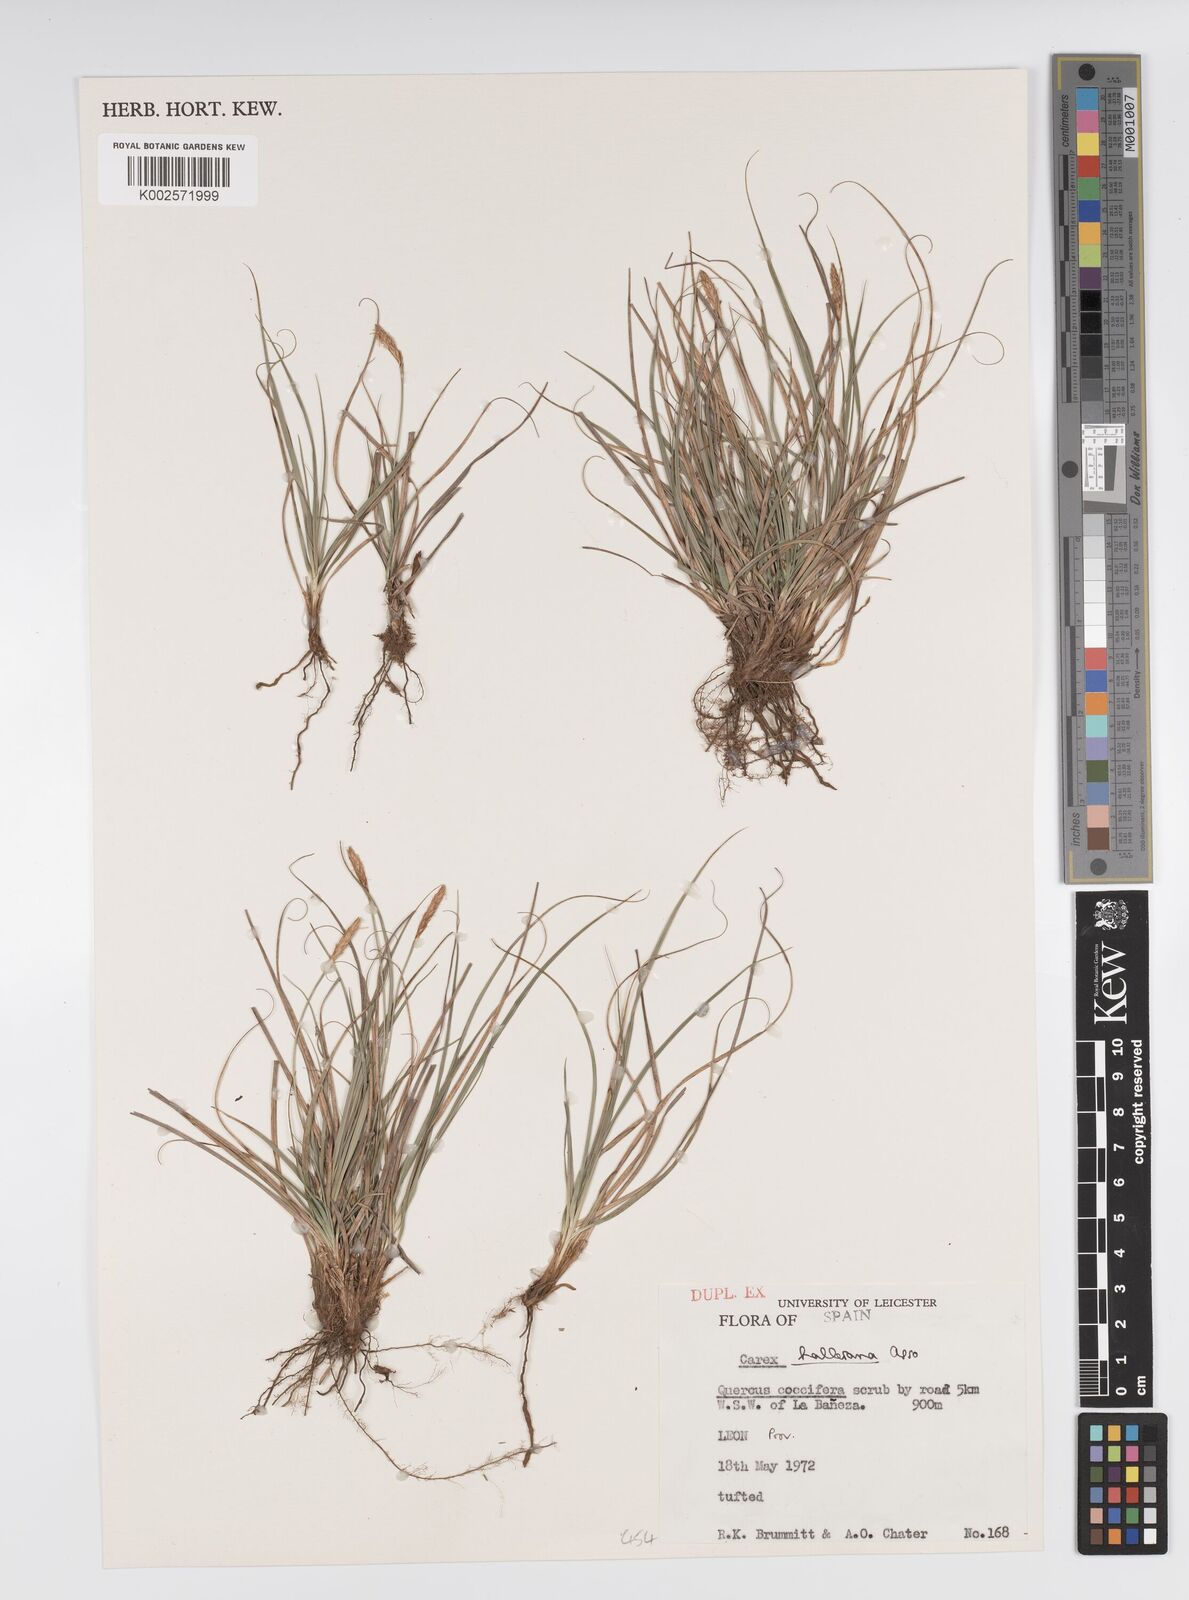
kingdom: Plantae
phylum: Tracheophyta
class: Liliopsida
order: Poales
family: Cyperaceae
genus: Carex
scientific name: Carex halleriana
